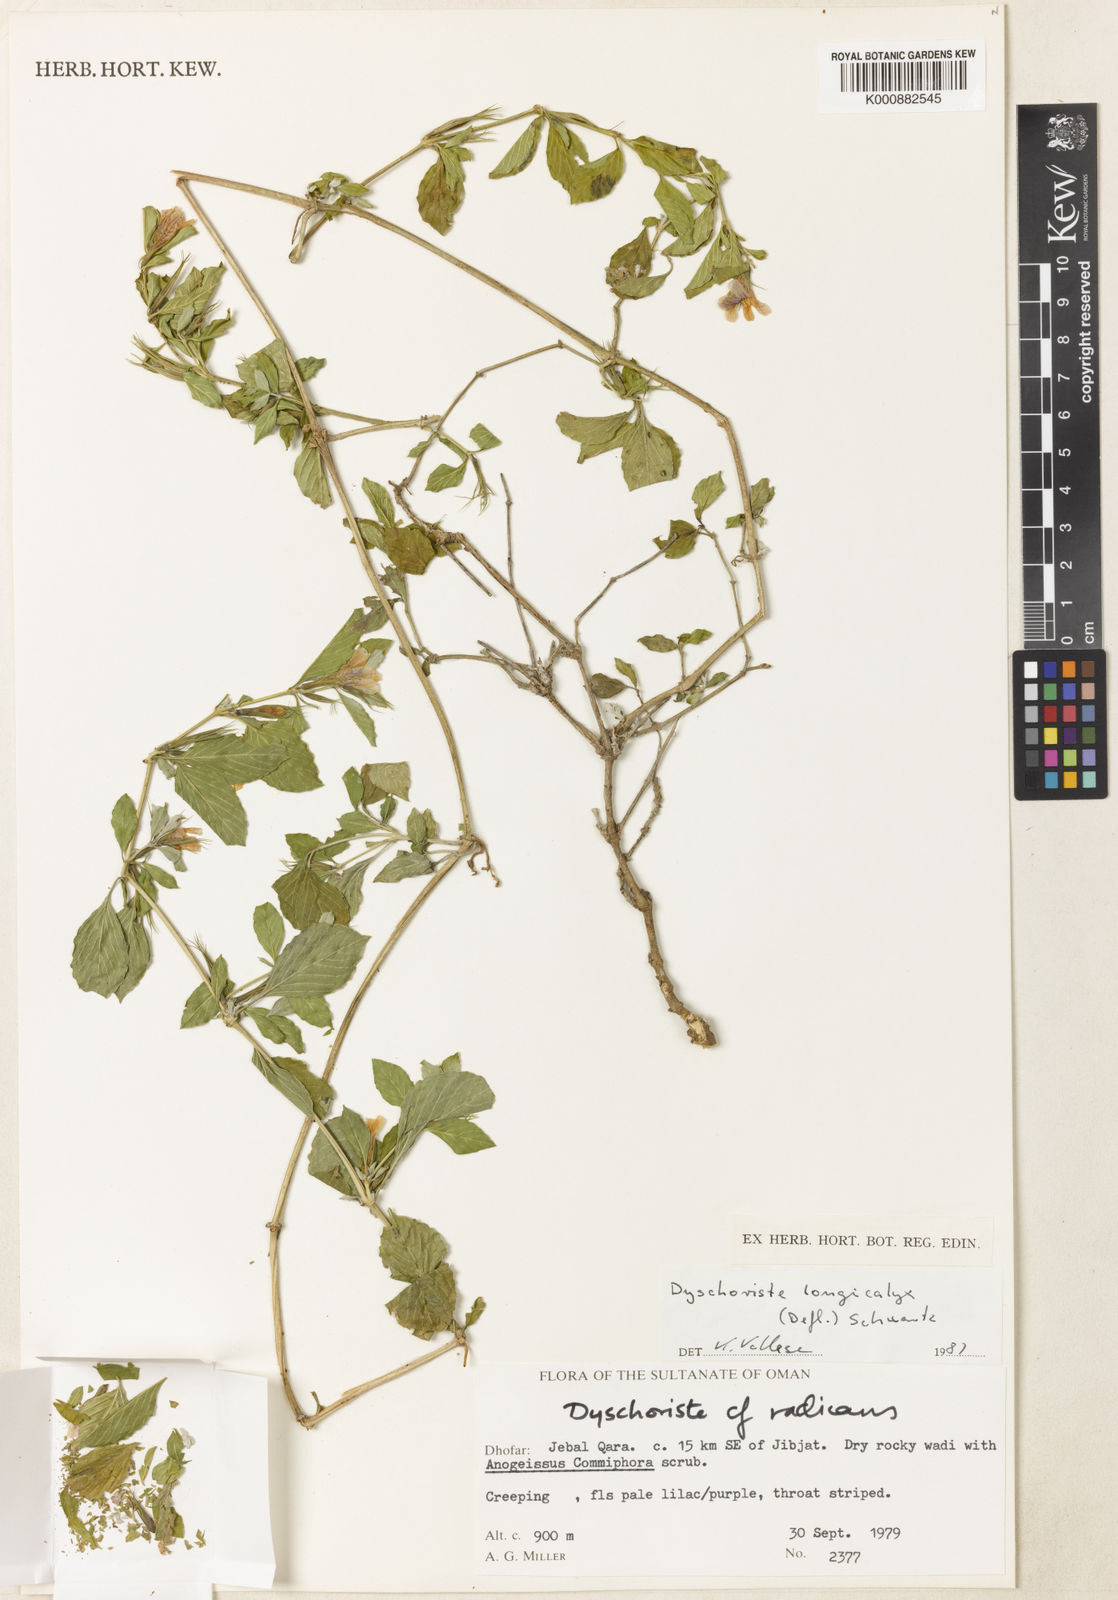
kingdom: Plantae
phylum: Tracheophyta
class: Magnoliopsida
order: Lamiales
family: Acanthaceae
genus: Dyschoriste
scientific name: Dyschoriste dalyi
